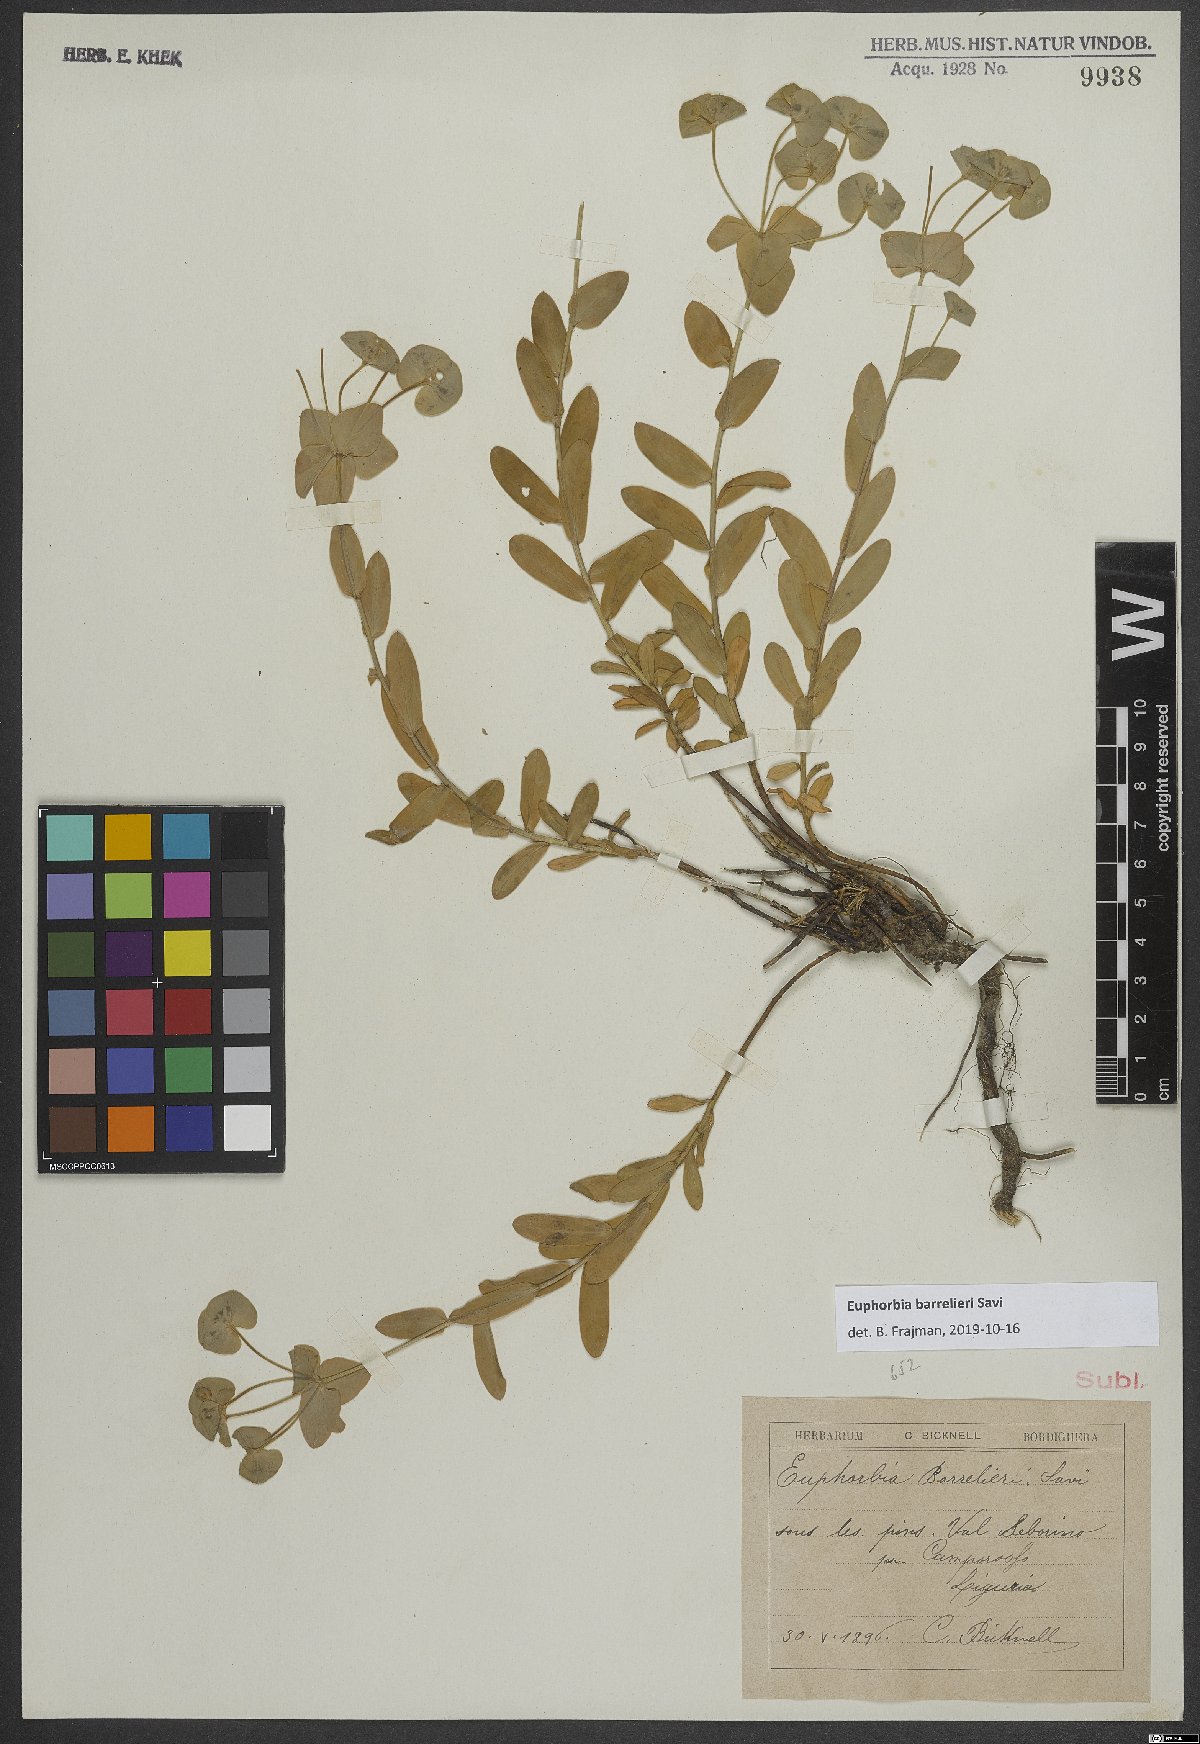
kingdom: Plantae
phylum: Tracheophyta
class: Magnoliopsida
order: Malpighiales
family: Euphorbiaceae
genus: Euphorbia
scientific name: Euphorbia
